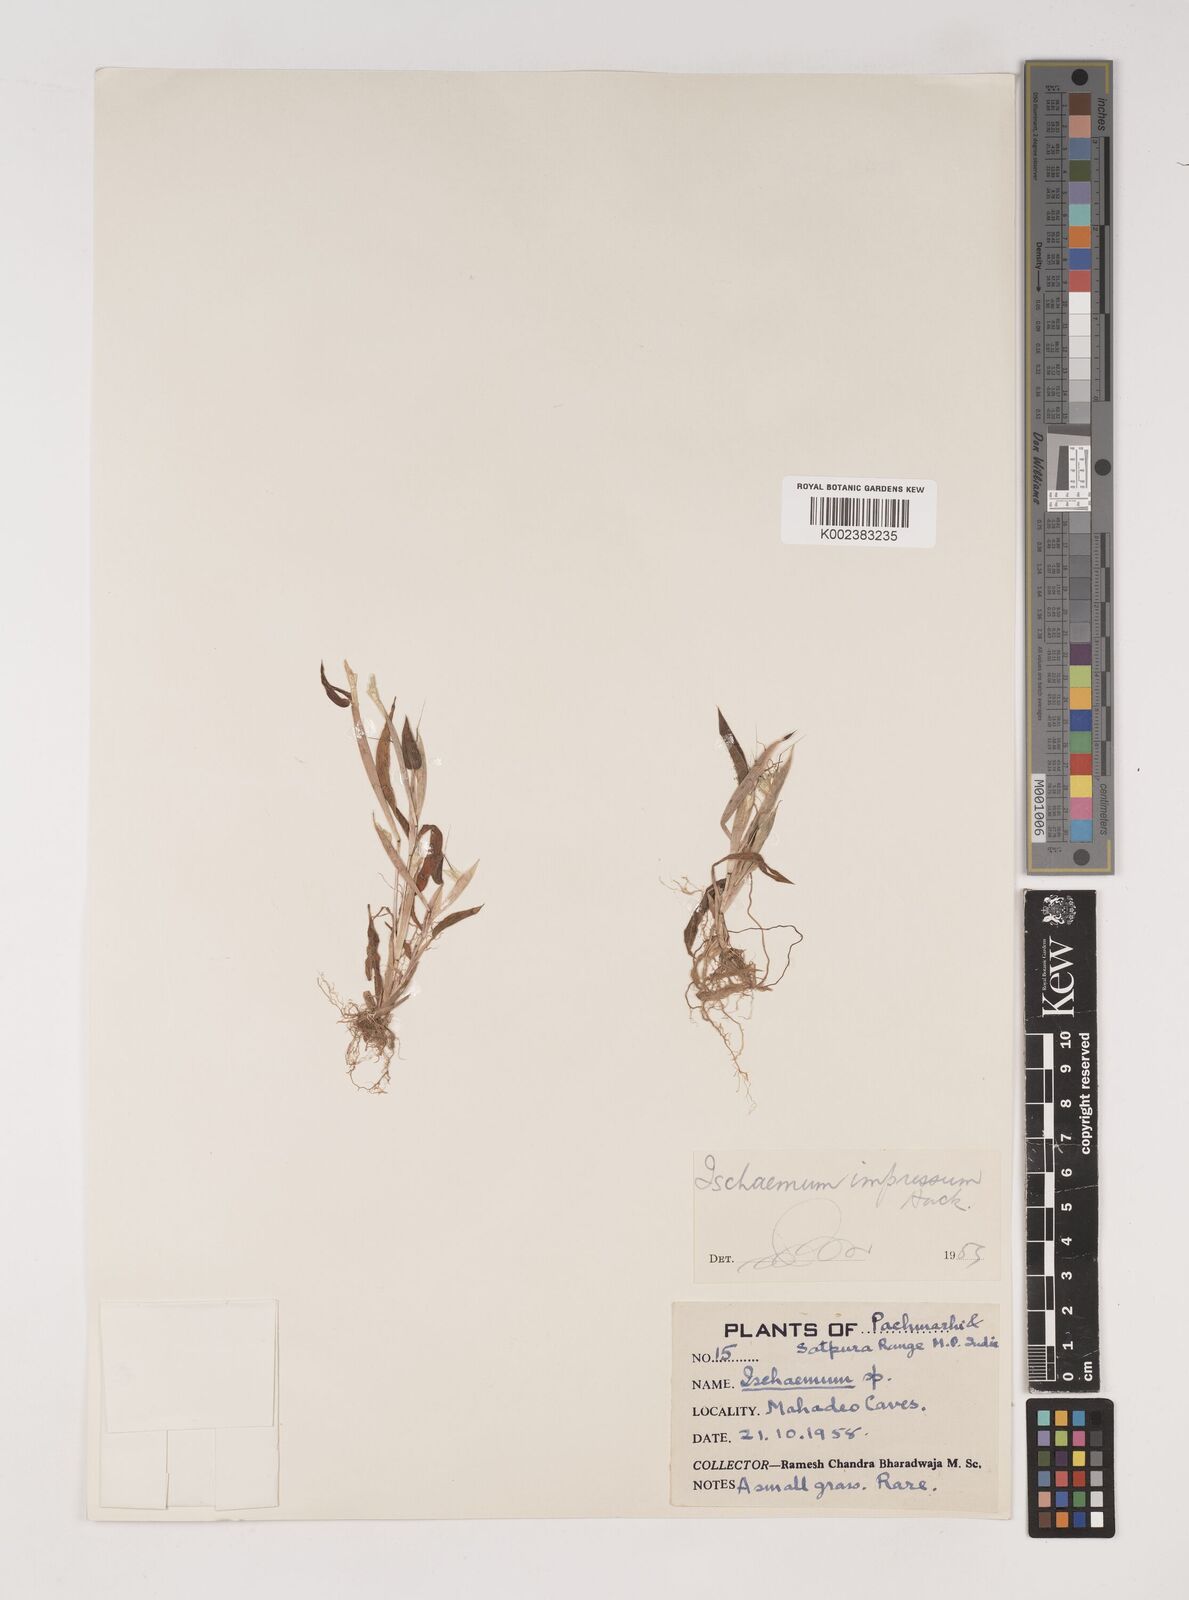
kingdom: Plantae
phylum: Tracheophyta
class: Liliopsida
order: Poales
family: Poaceae
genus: Ischaemum
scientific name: Ischaemum impressum
